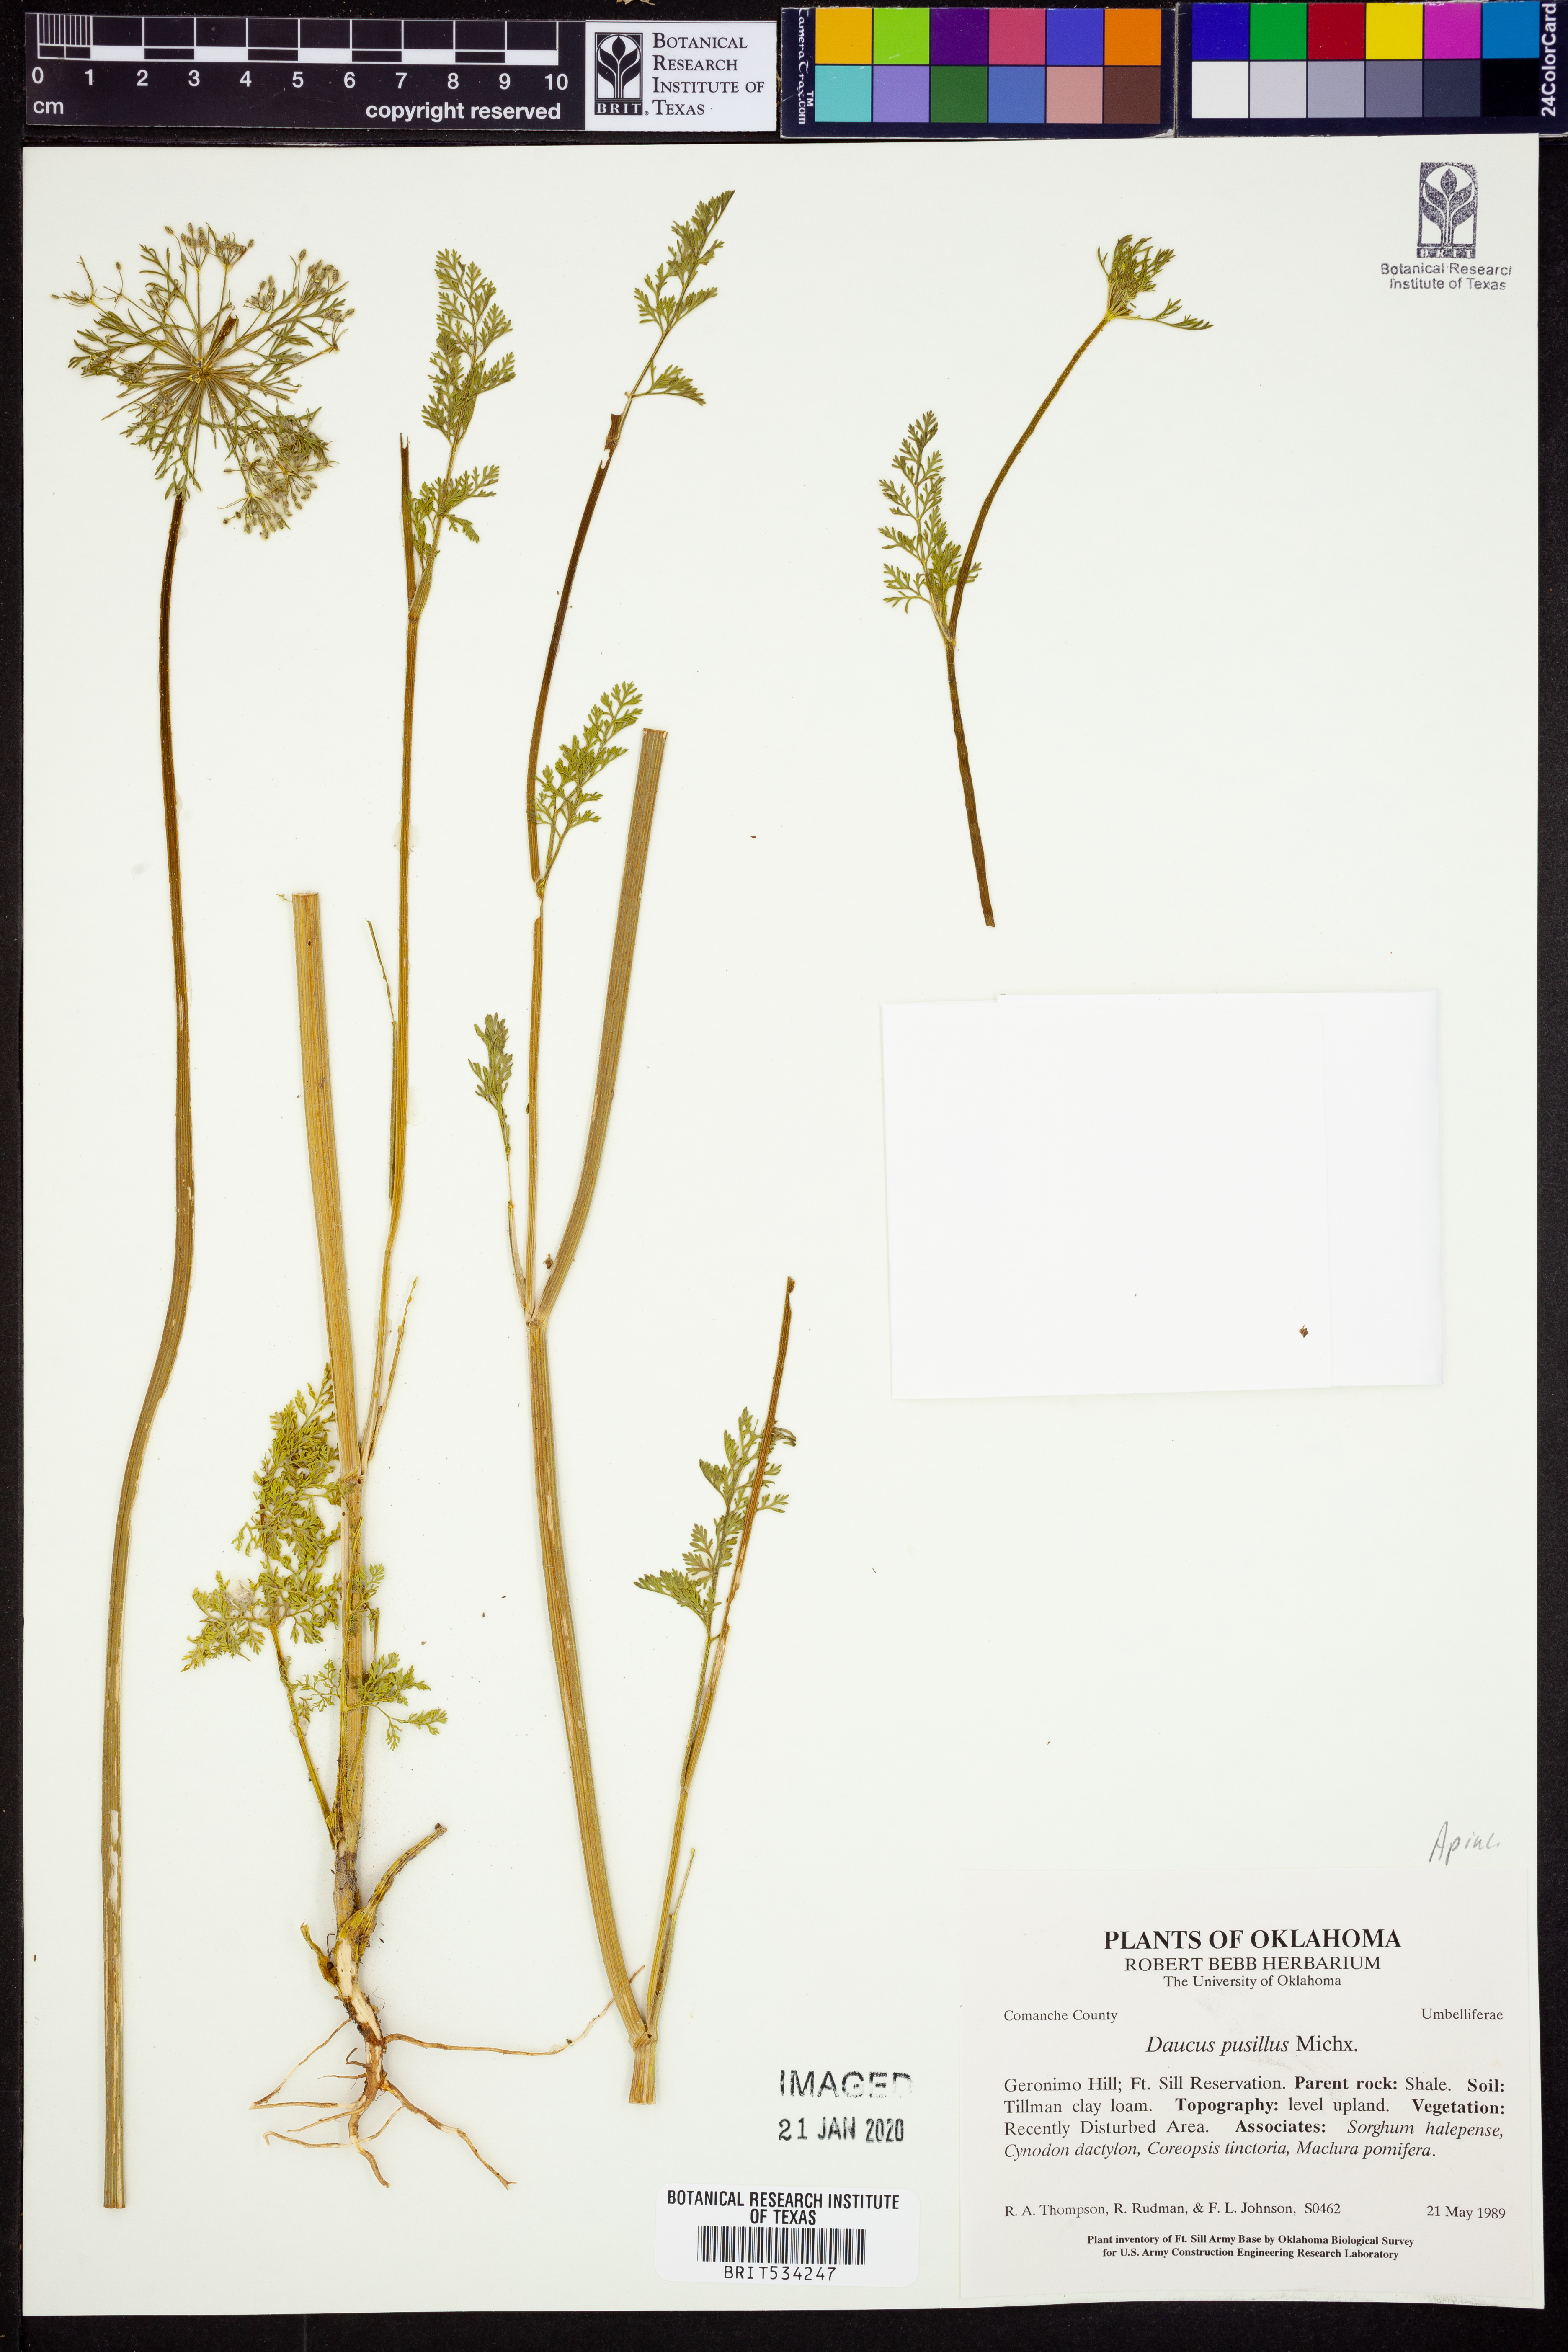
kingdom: Plantae
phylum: Tracheophyta
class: Magnoliopsida
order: Apiales
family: Apiaceae
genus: Daucus
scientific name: Daucus pusillus
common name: Southwest wild carrot
